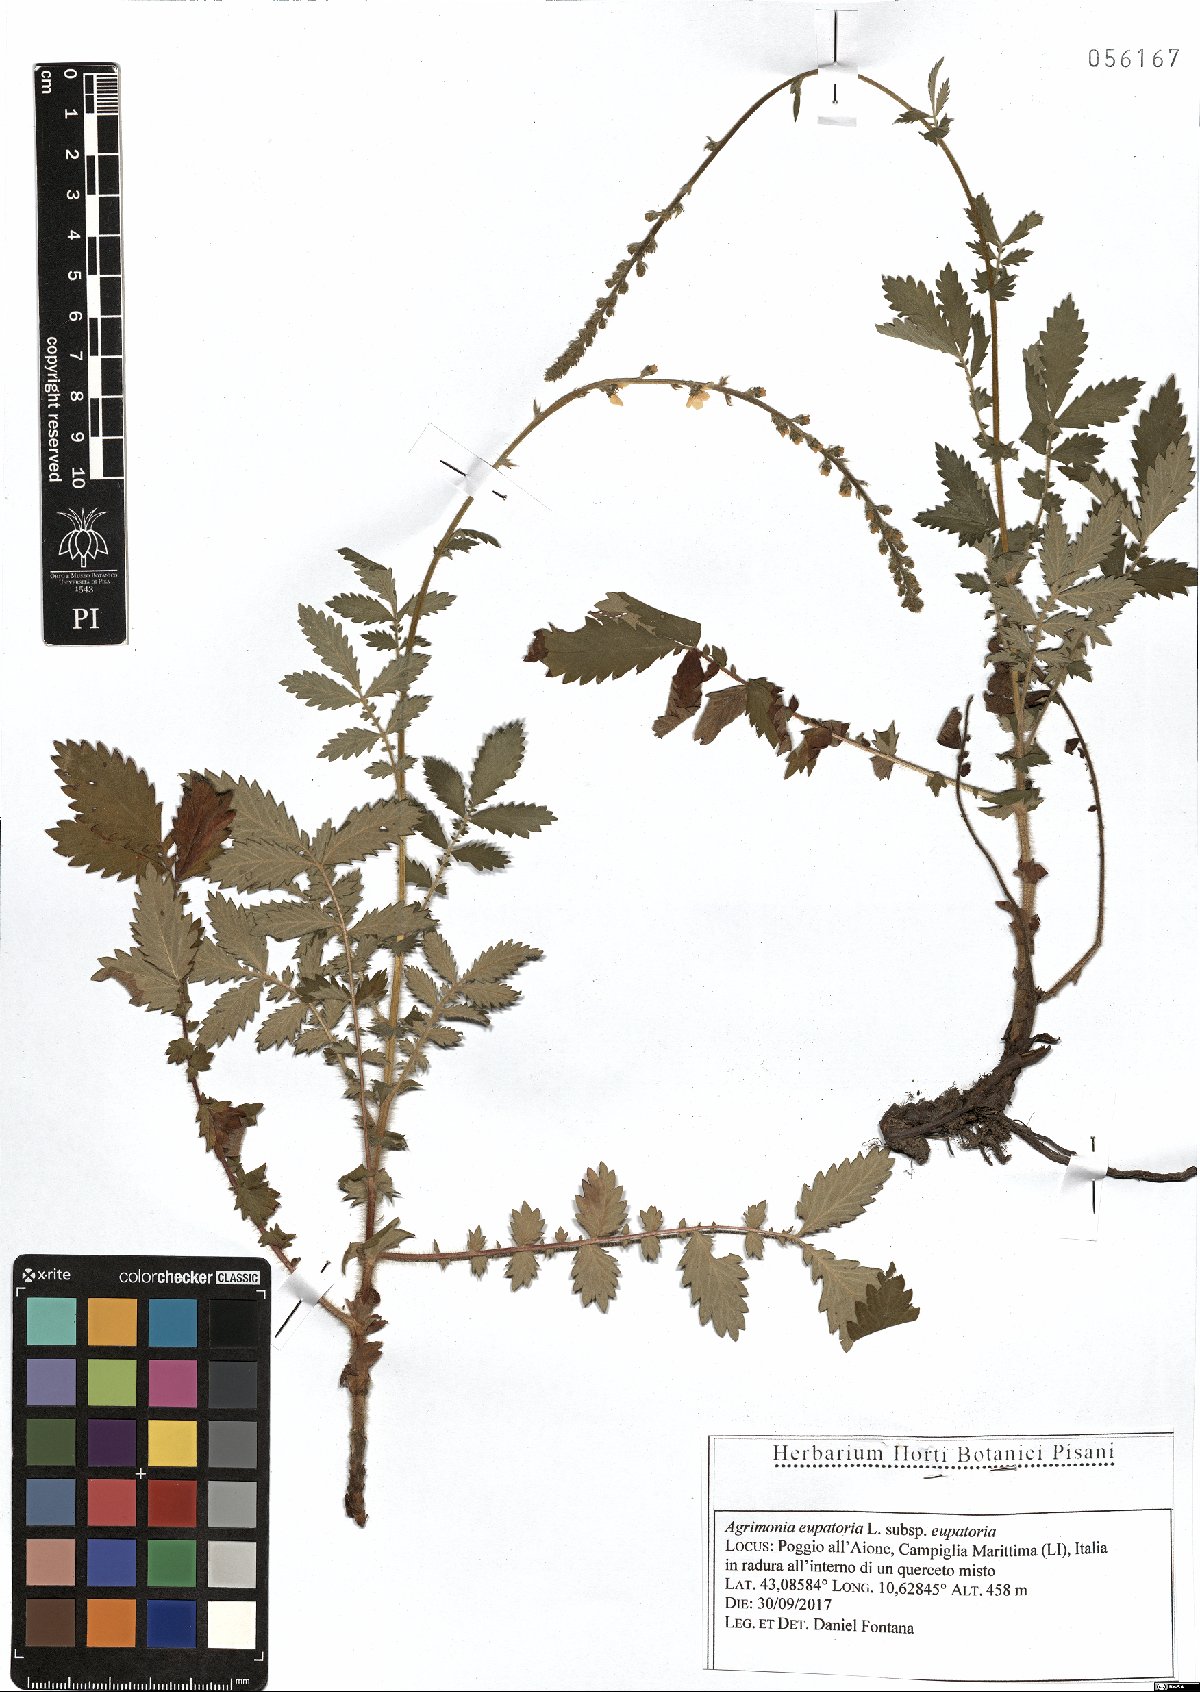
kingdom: Plantae
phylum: Tracheophyta
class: Magnoliopsida
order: Rosales
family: Rosaceae
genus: Agrimonia
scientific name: Agrimonia eupatoria
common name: Agrimony
